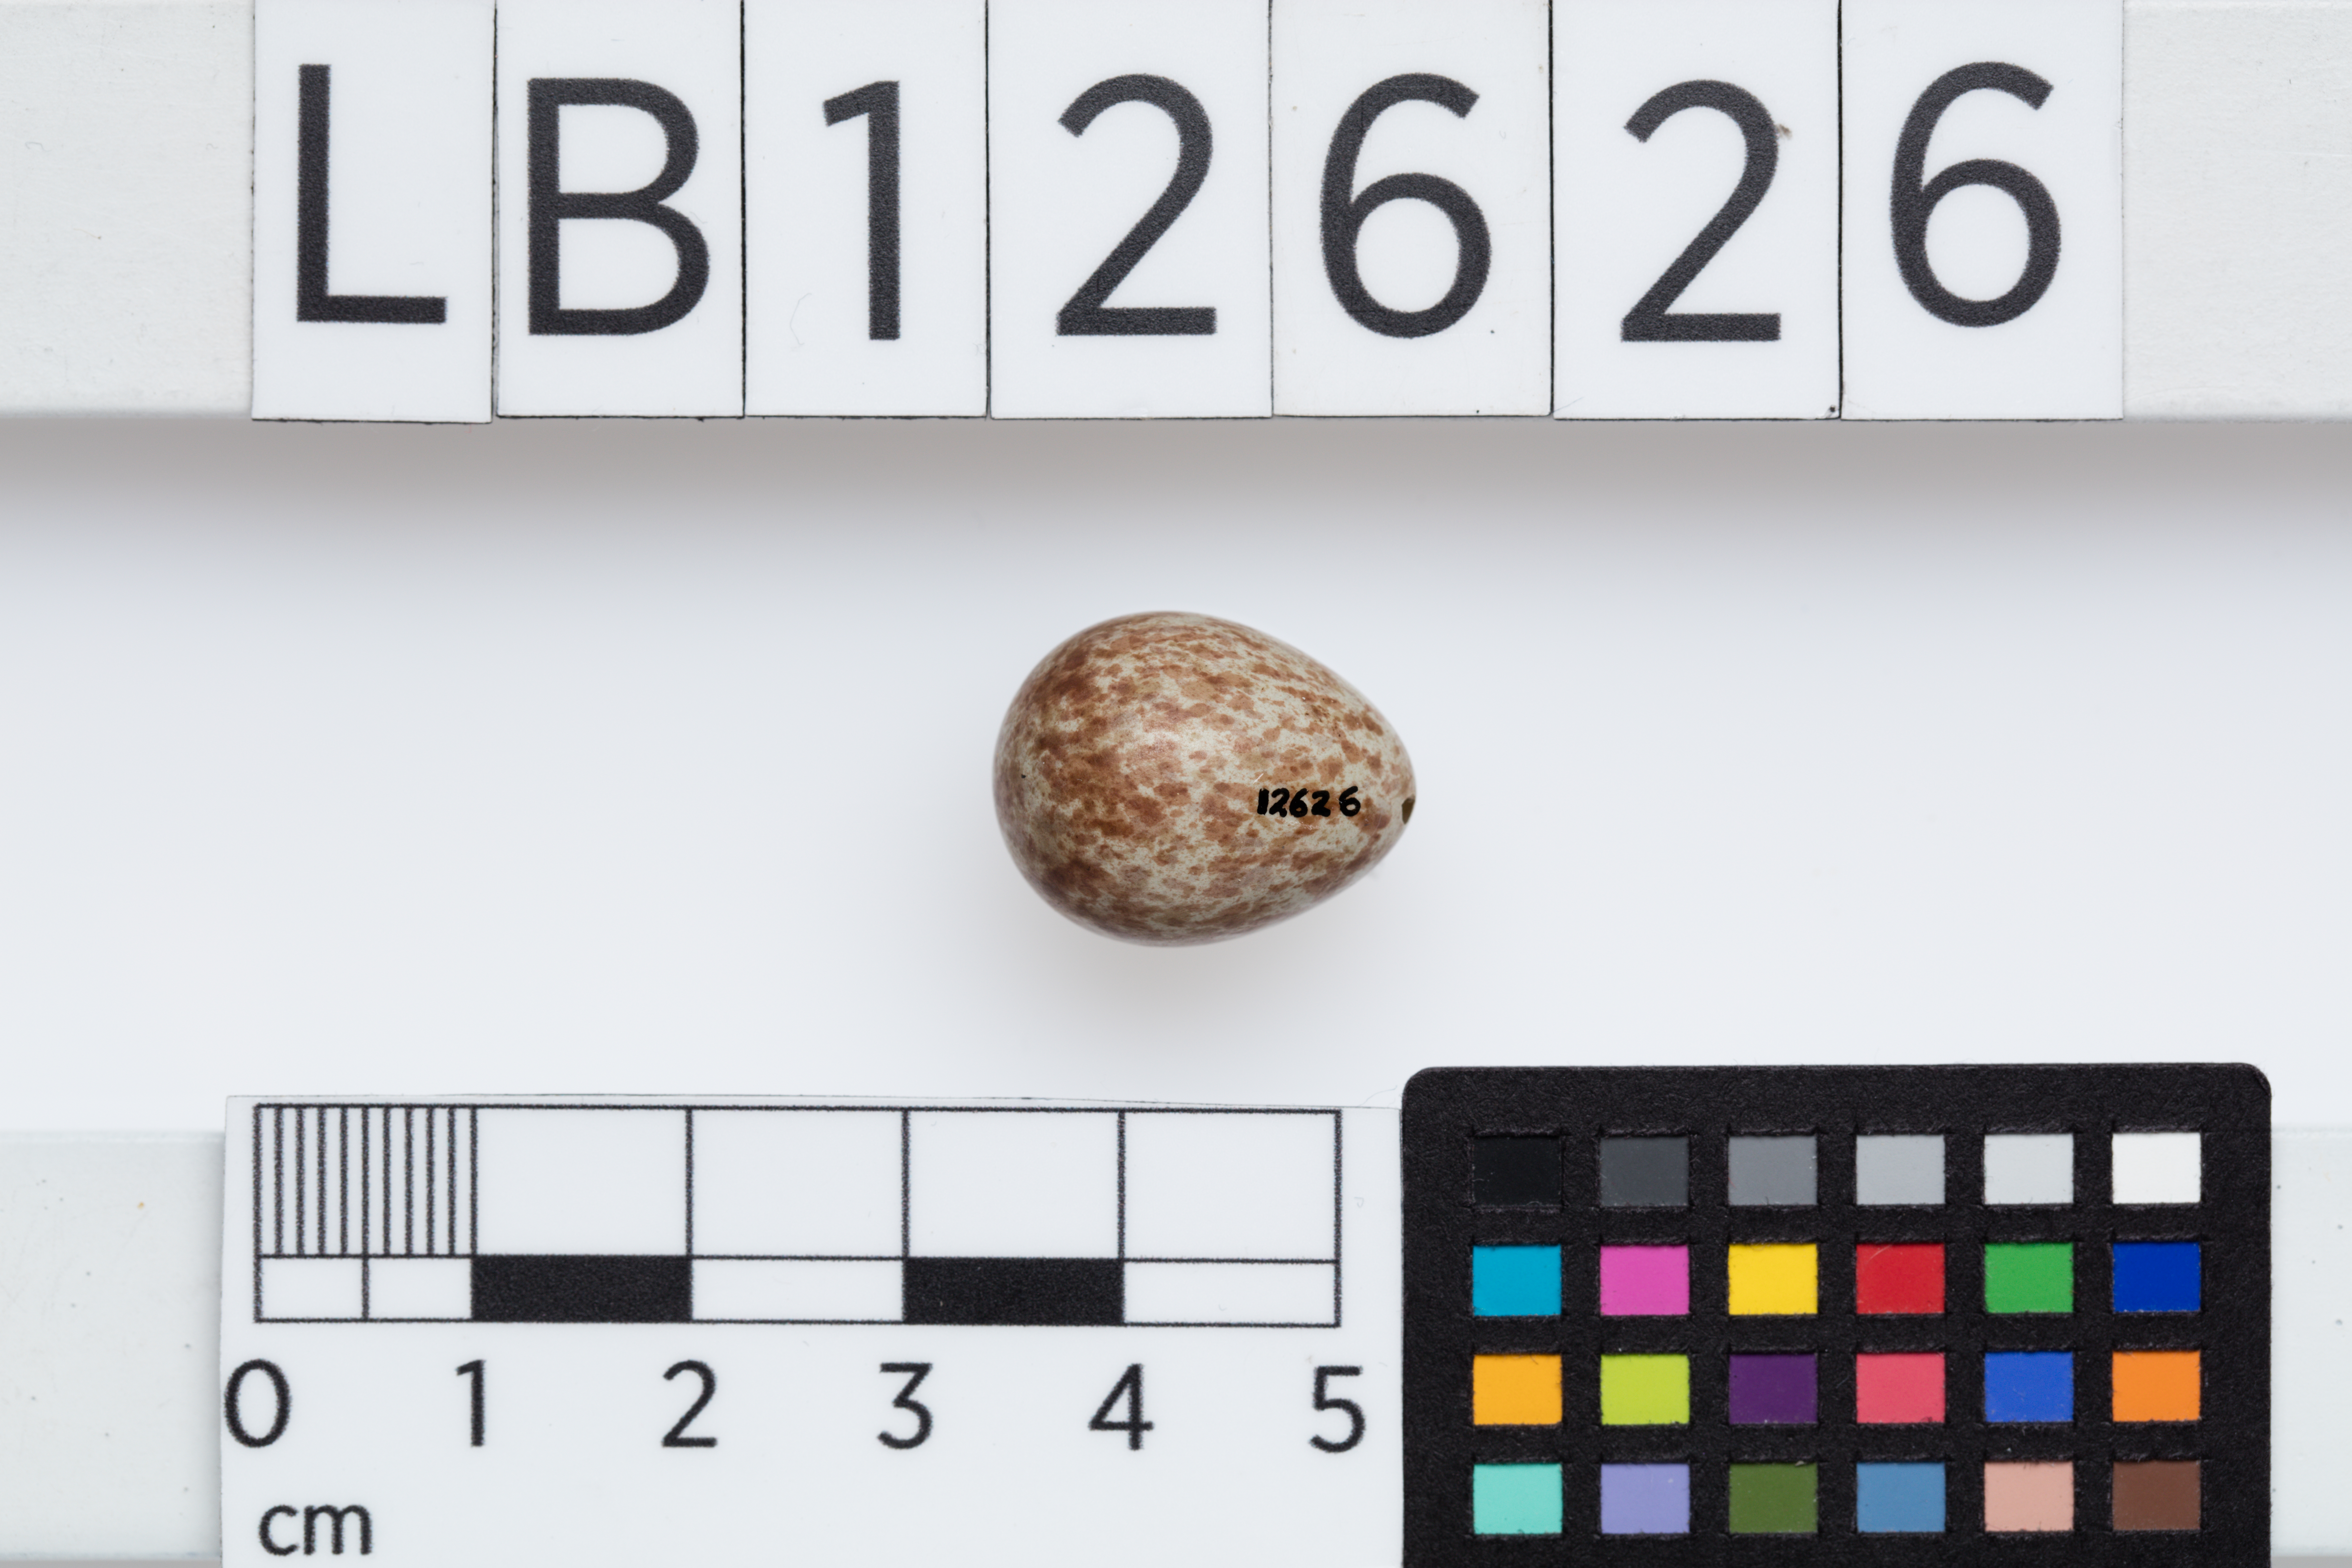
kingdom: Animalia
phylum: Chordata
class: Aves
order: Passeriformes
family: Campephagidae
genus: Lalage
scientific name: Lalage sueurii
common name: White-shouldered triller
